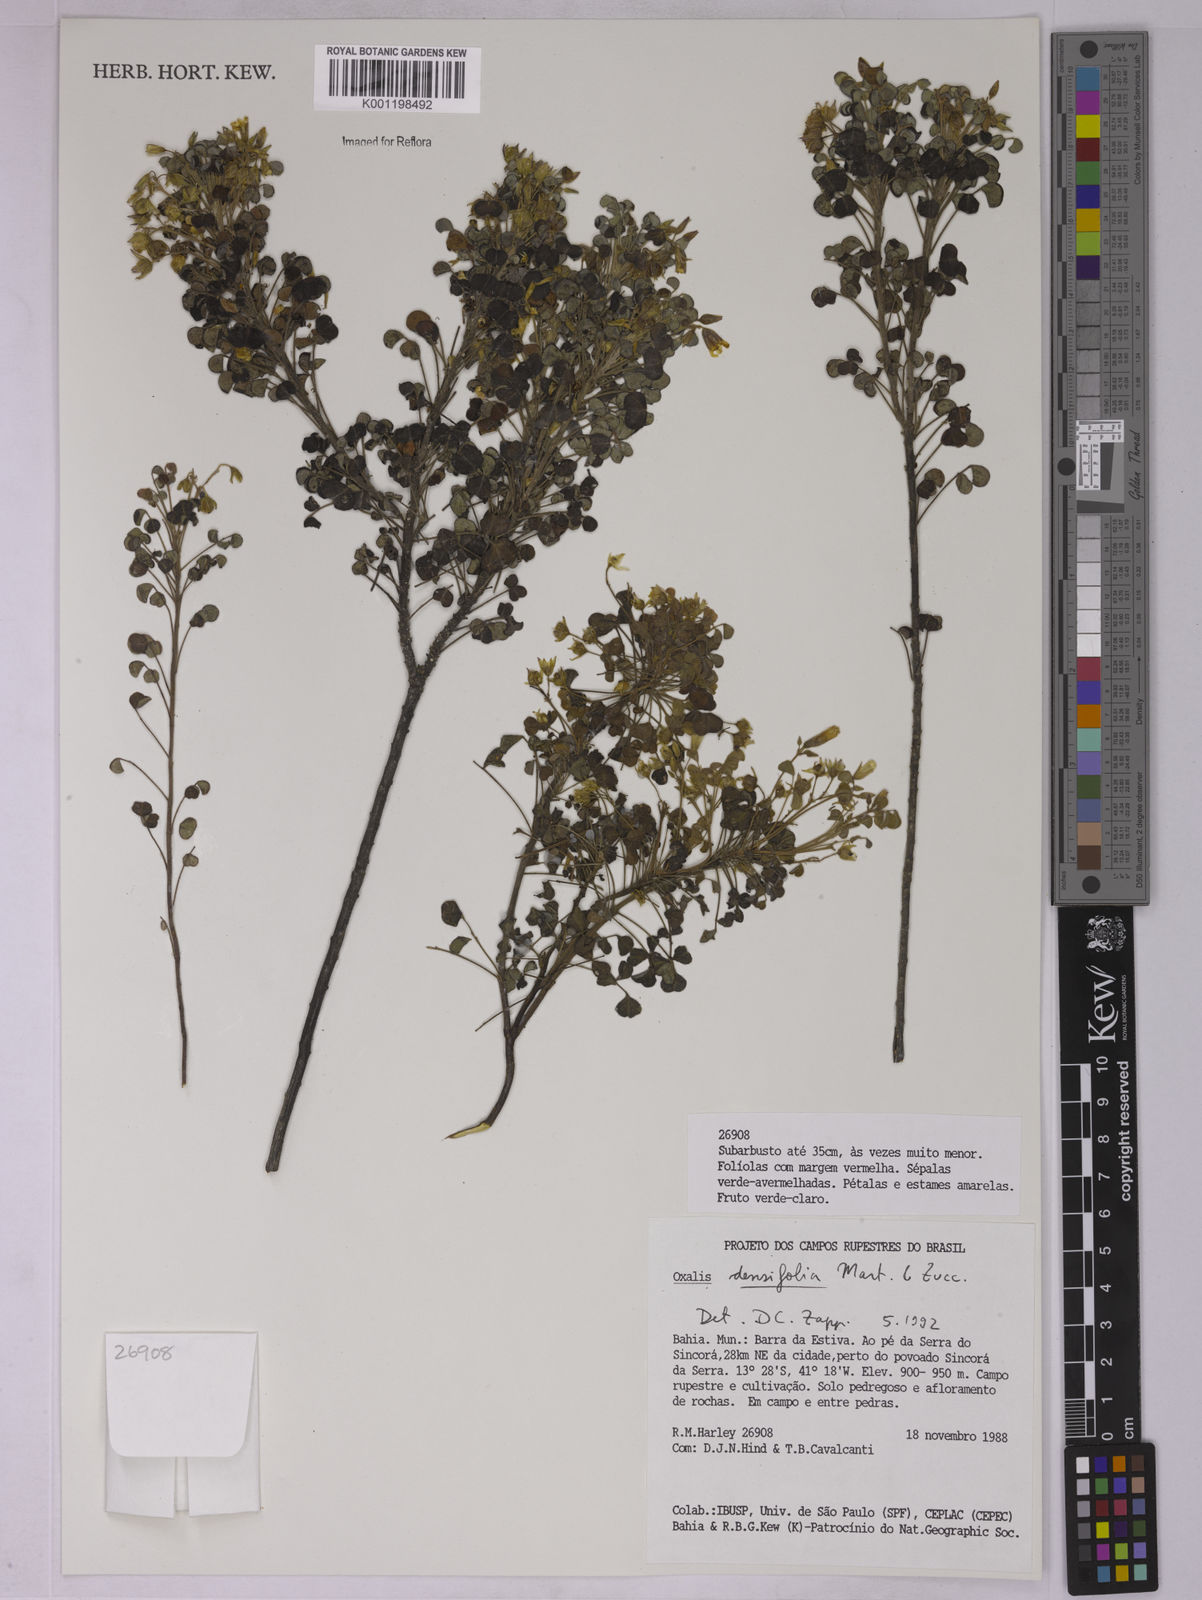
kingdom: Plantae
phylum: Tracheophyta
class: Magnoliopsida
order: Oxalidales
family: Oxalidaceae
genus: Oxalis
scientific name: Oxalis cerradoana
